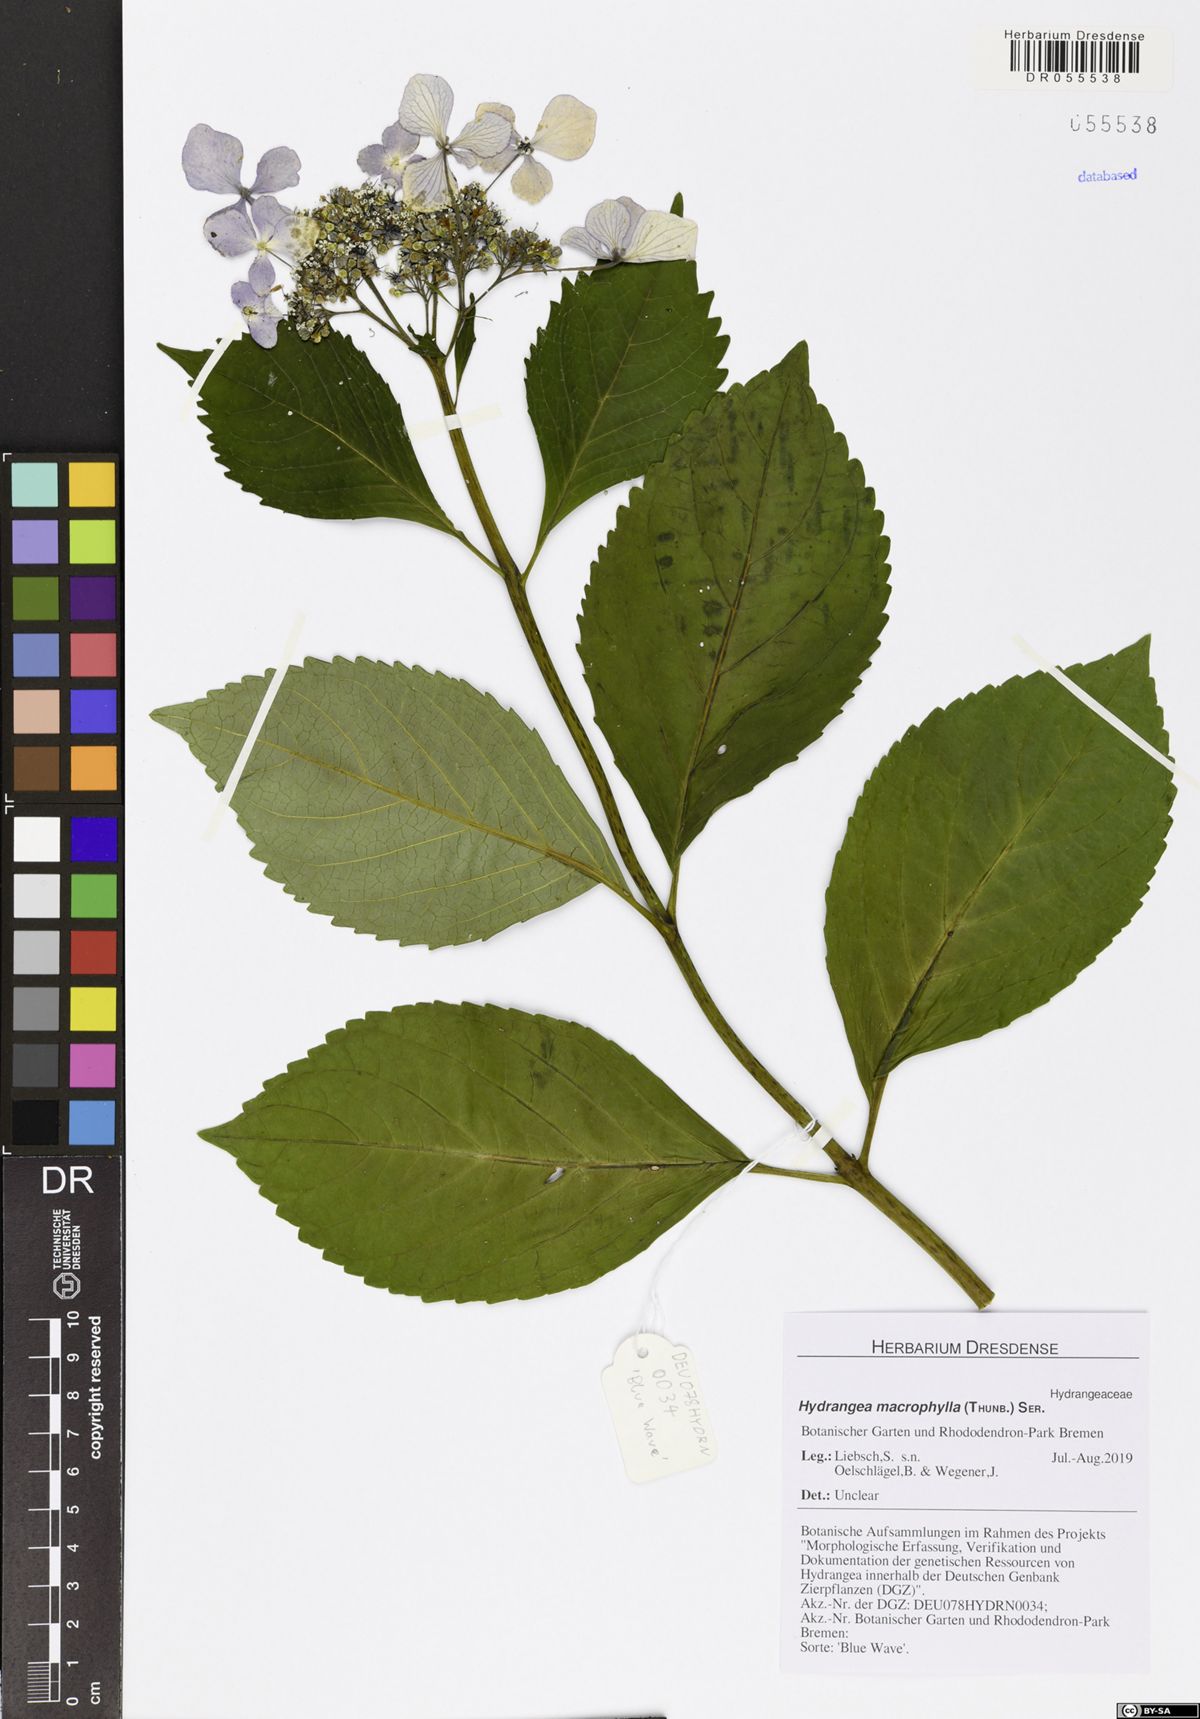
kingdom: Plantae
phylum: Tracheophyta
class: Magnoliopsida
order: Cornales
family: Hydrangeaceae
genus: Hydrangea
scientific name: Hydrangea macrophylla
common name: Hydrangea
